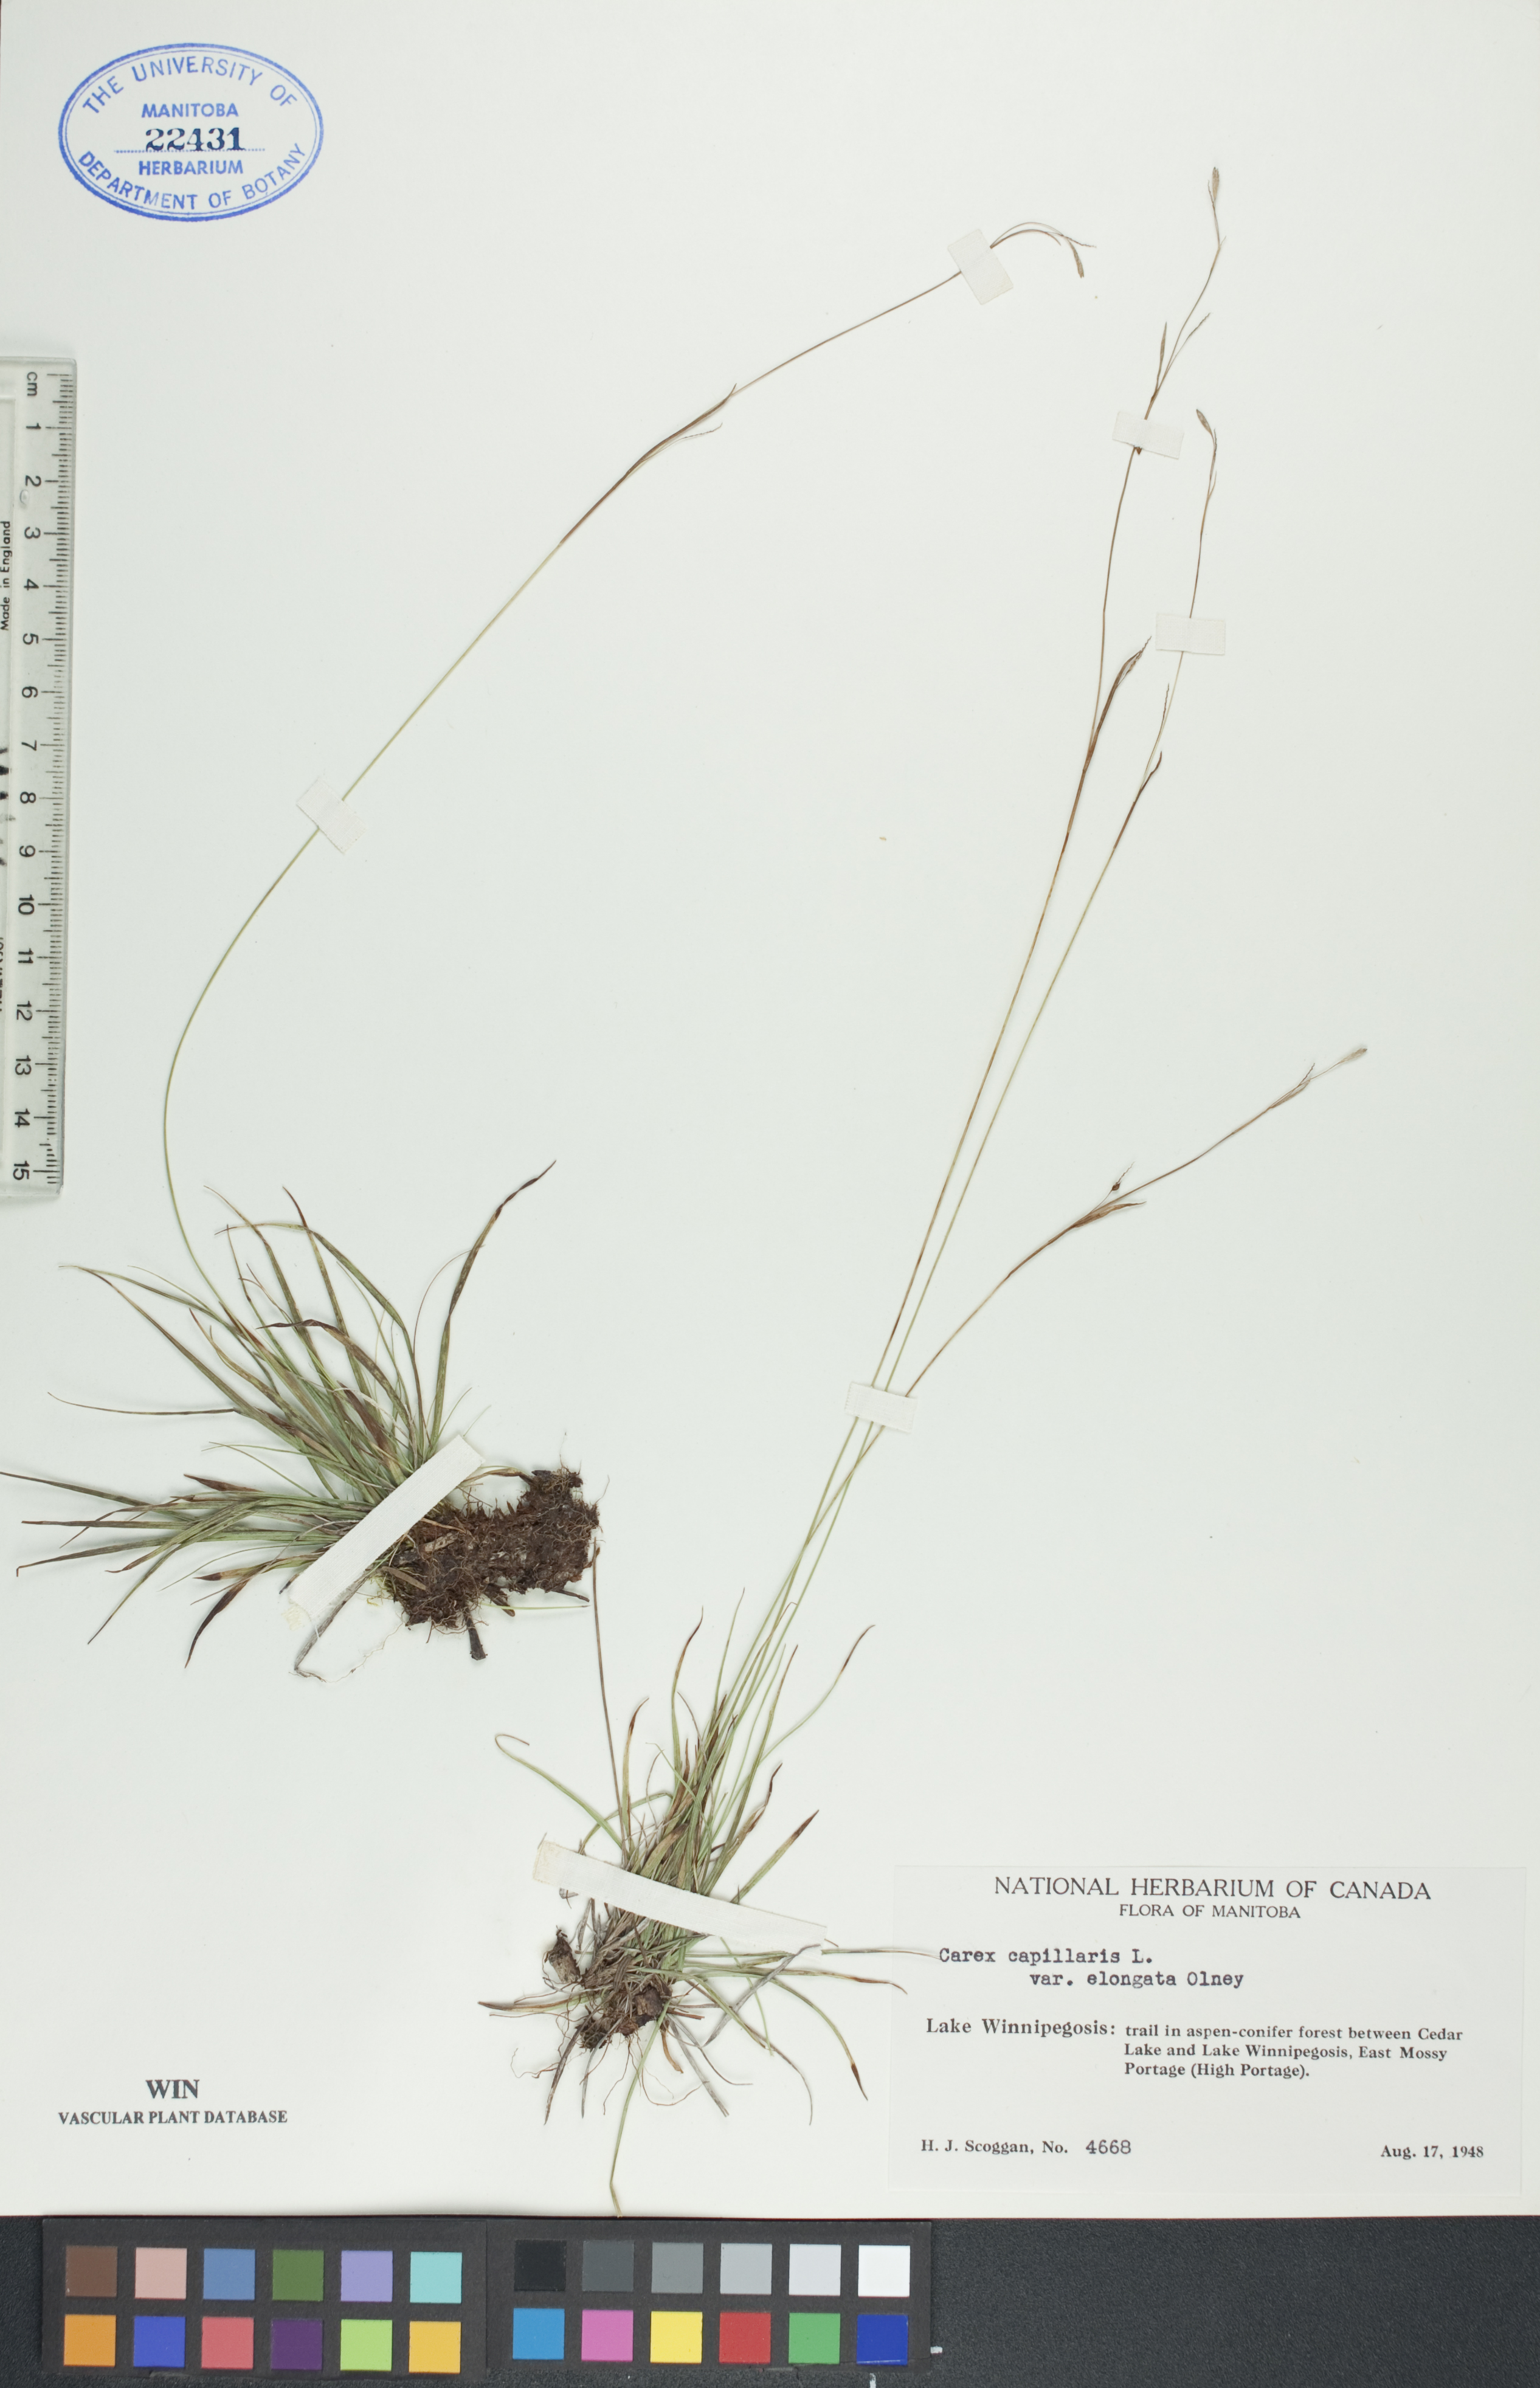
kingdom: Plantae
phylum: Tracheophyta
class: Liliopsida
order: Poales
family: Cyperaceae
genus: Carex
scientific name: Carex capillaris
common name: Hair sedge
